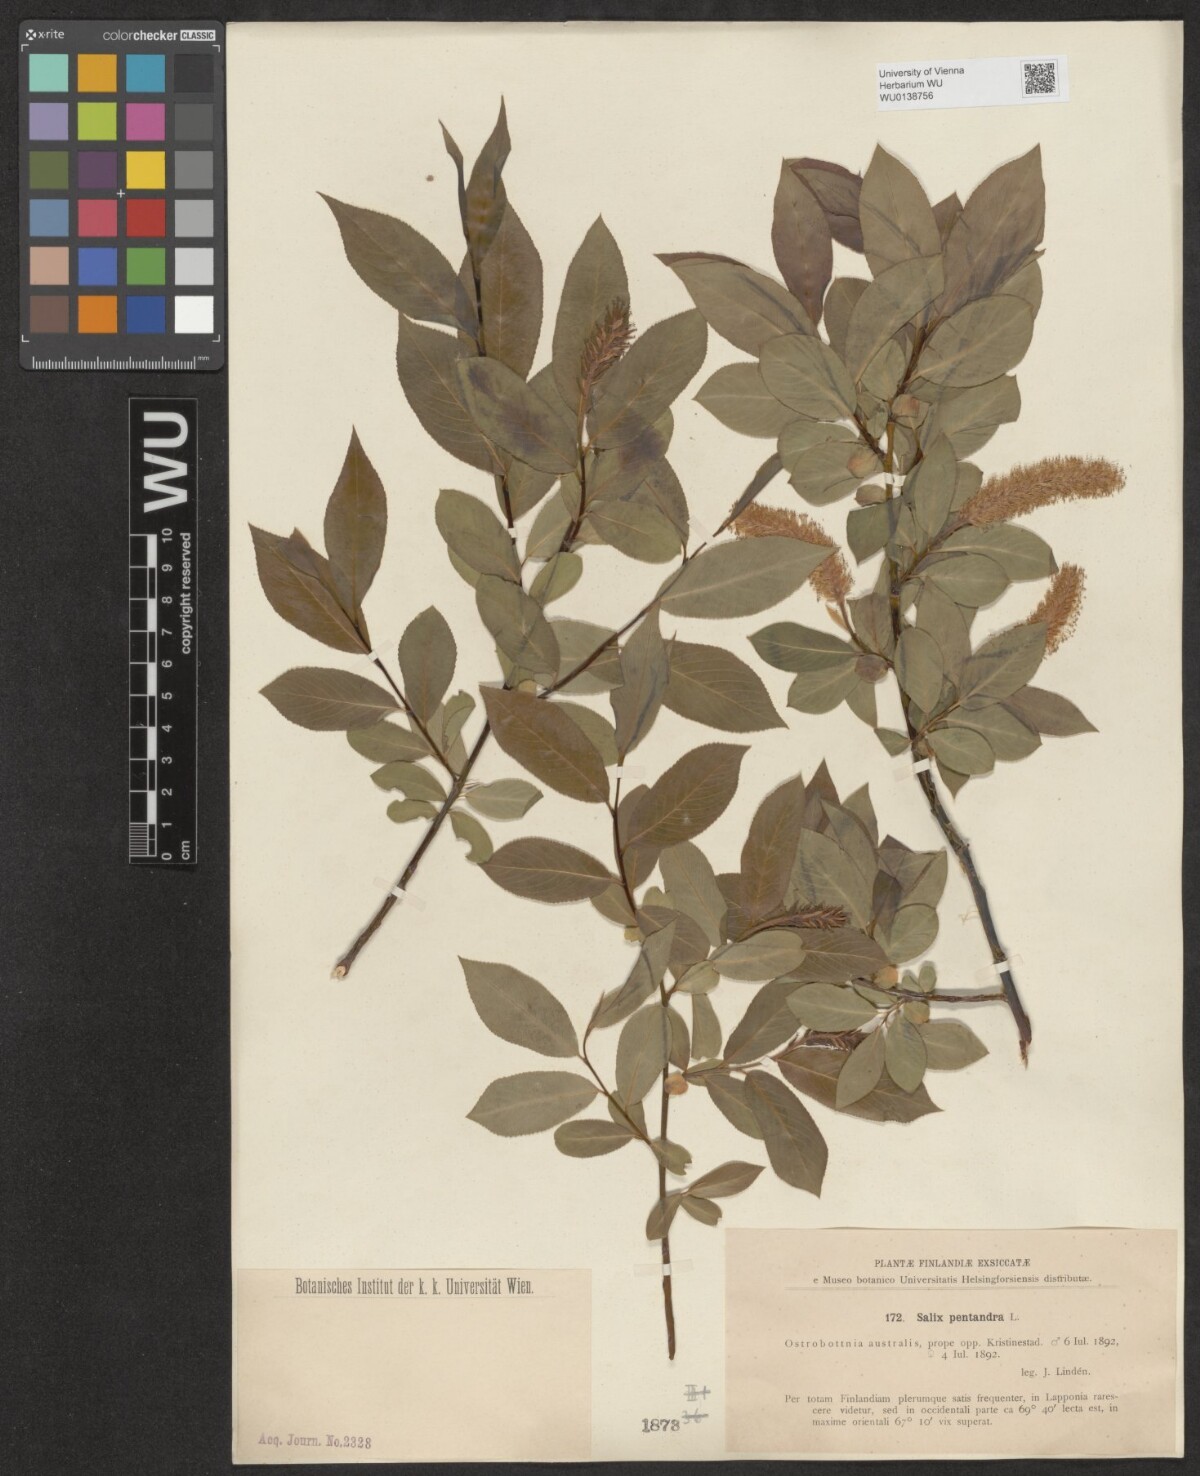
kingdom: Plantae
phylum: Tracheophyta
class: Magnoliopsida
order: Malpighiales
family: Salicaceae
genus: Salix
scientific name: Salix pentandra
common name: Bay willow
